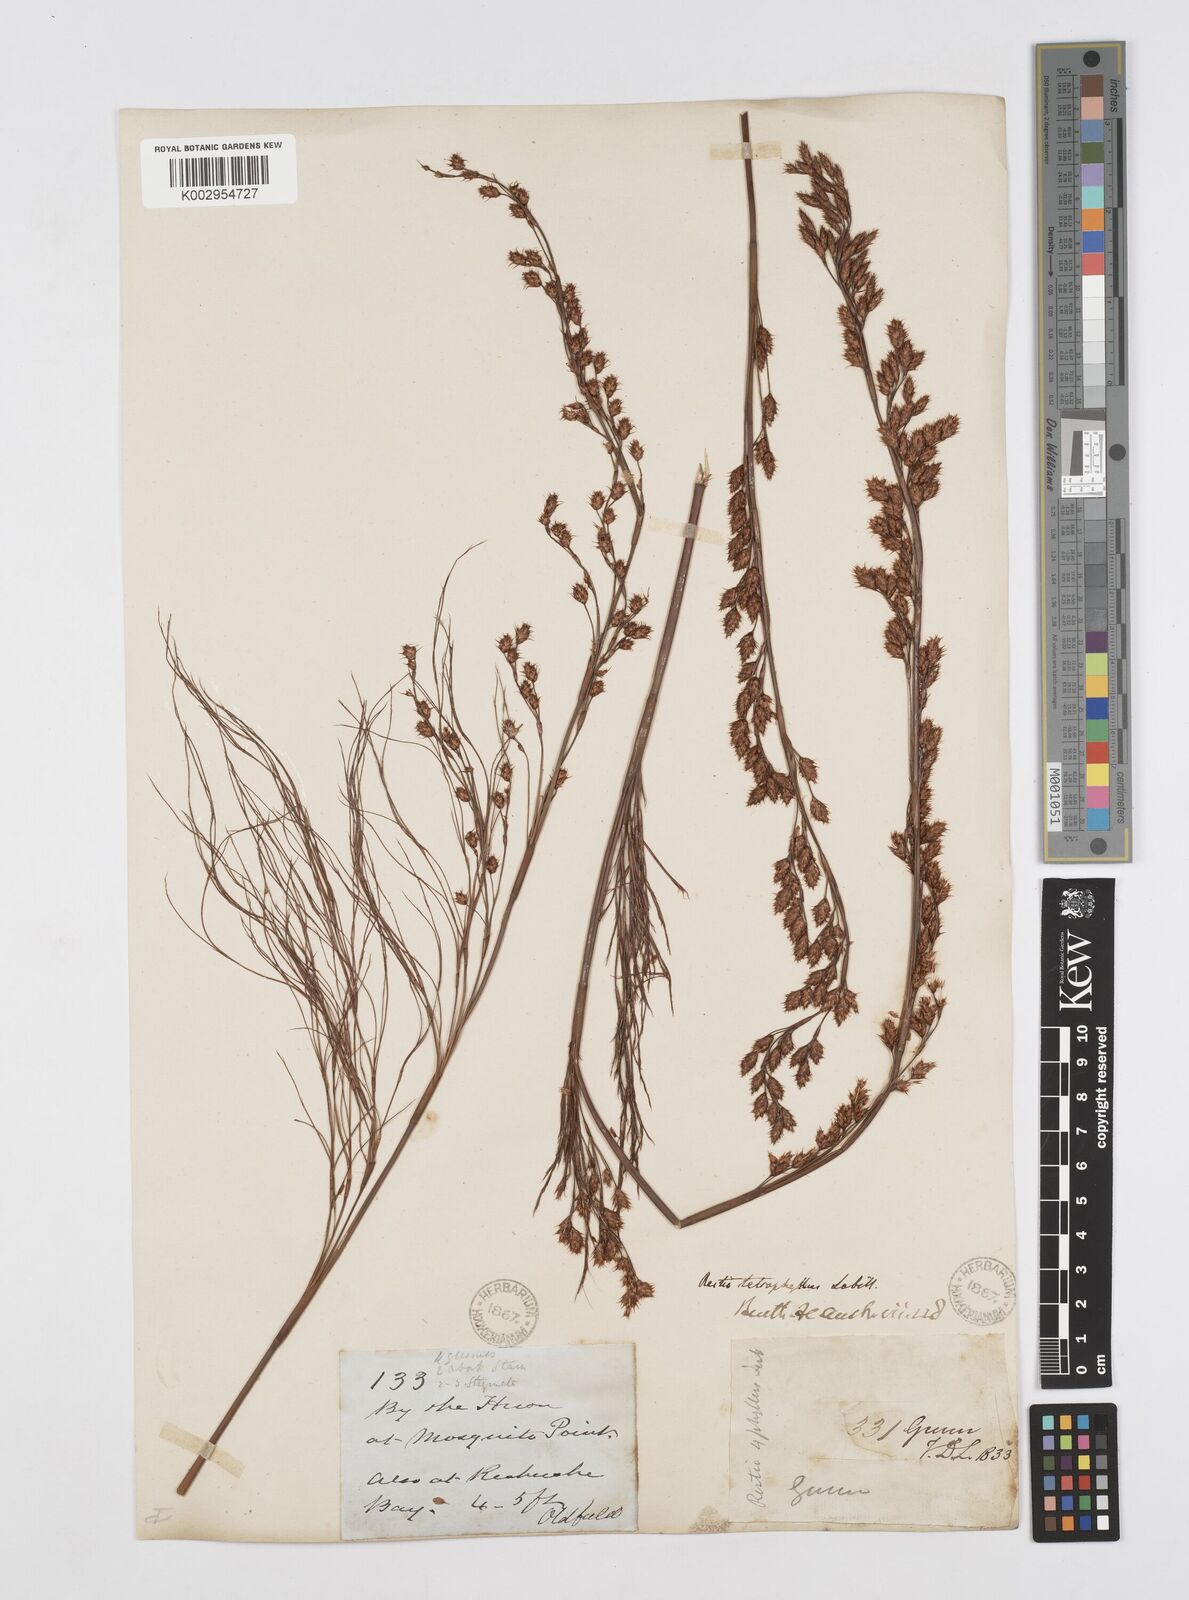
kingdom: Plantae
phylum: Tracheophyta
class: Liliopsida
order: Poales
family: Restionaceae
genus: Baloskion
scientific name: Baloskion tetraphyllum
